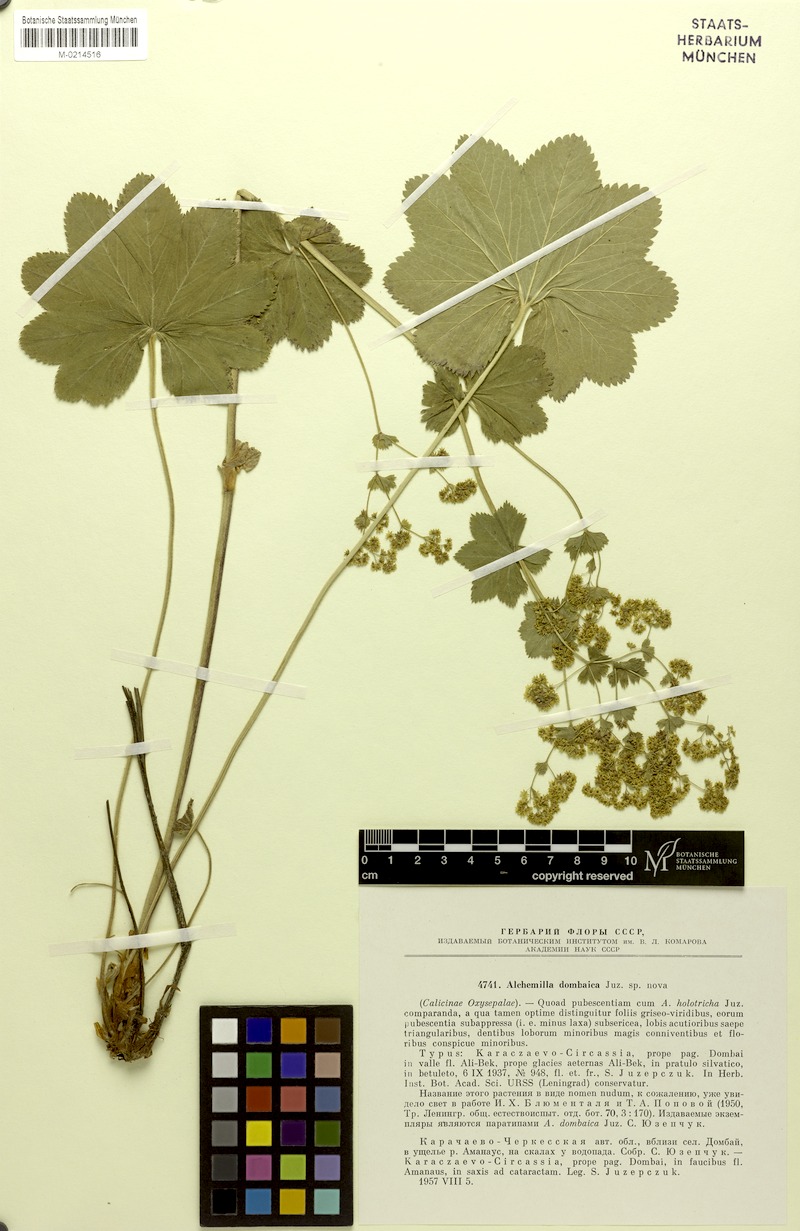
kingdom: Plantae
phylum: Tracheophyta
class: Magnoliopsida
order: Rosales
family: Rosaceae
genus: Alchemilla
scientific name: Alchemilla dombaica
